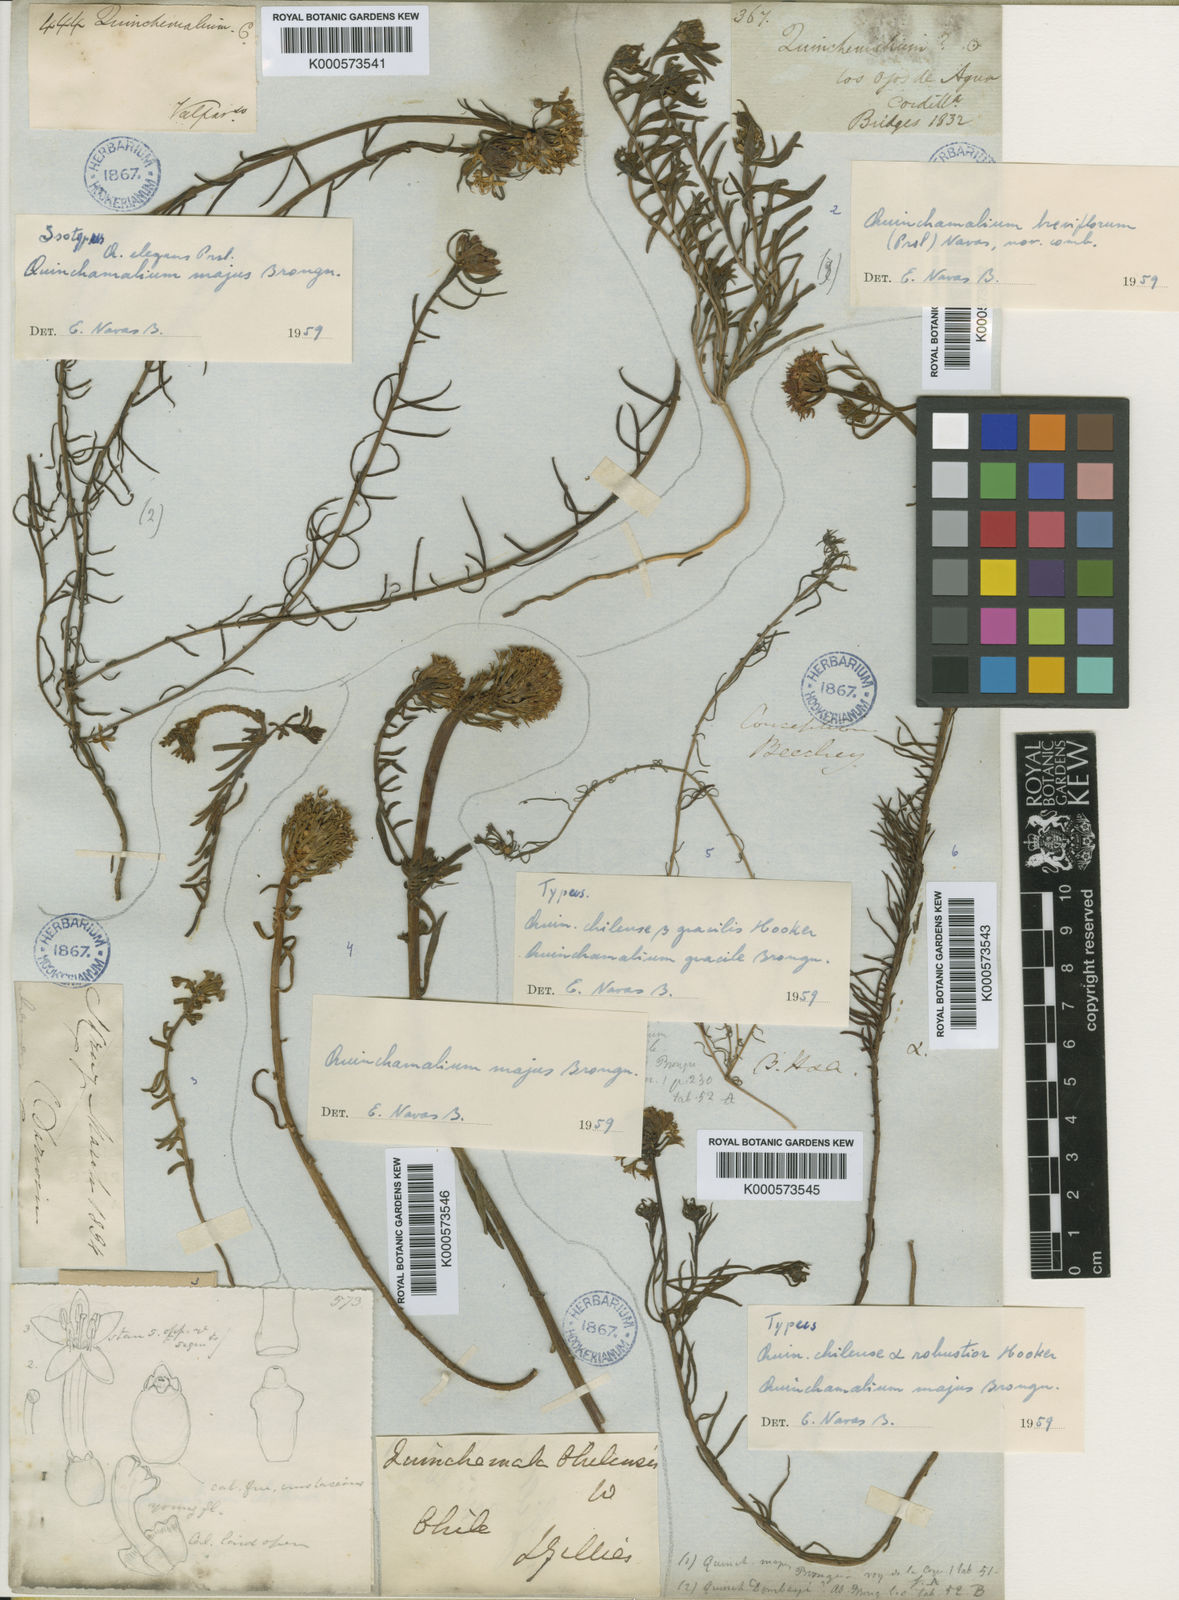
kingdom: Plantae
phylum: Tracheophyta
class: Magnoliopsida
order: Santalales
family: Schoepfiaceae
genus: Quinchamalium
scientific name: Quinchamalium chilense
